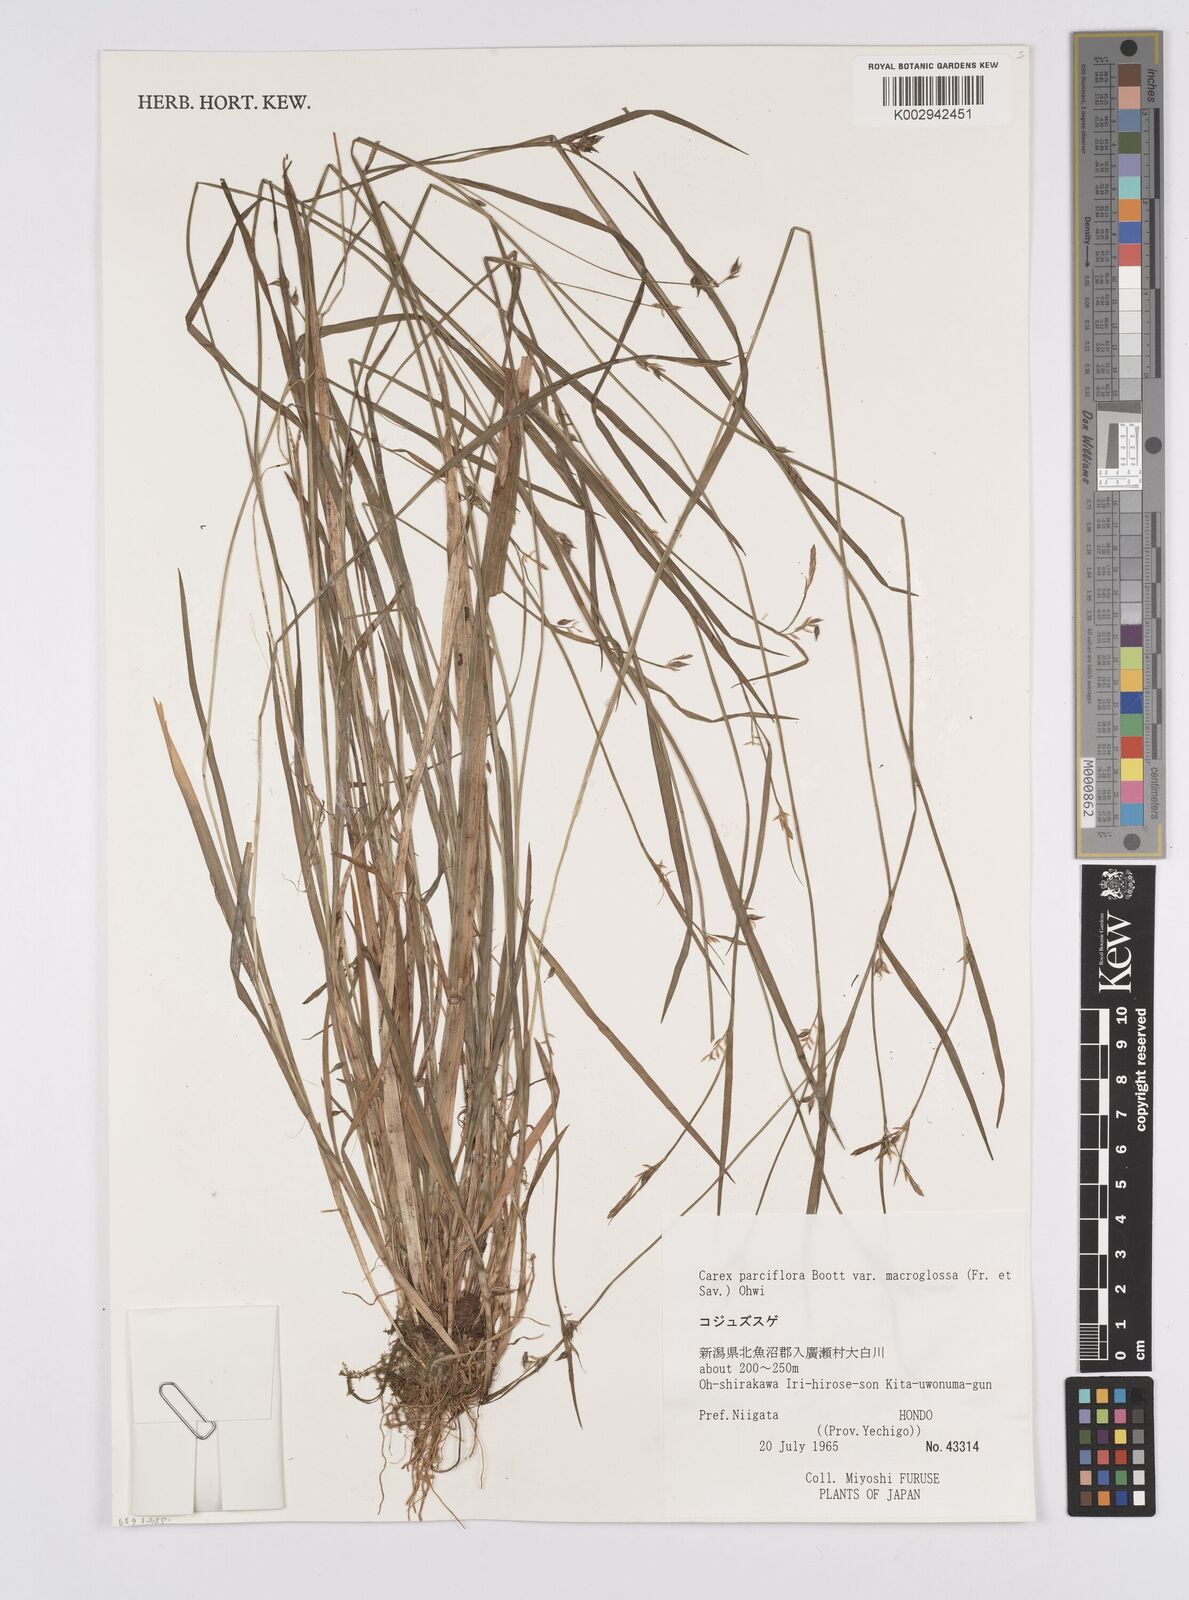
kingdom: Plantae
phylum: Tracheophyta
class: Liliopsida
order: Poales
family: Cyperaceae
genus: Carex
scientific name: Carex jackiana
